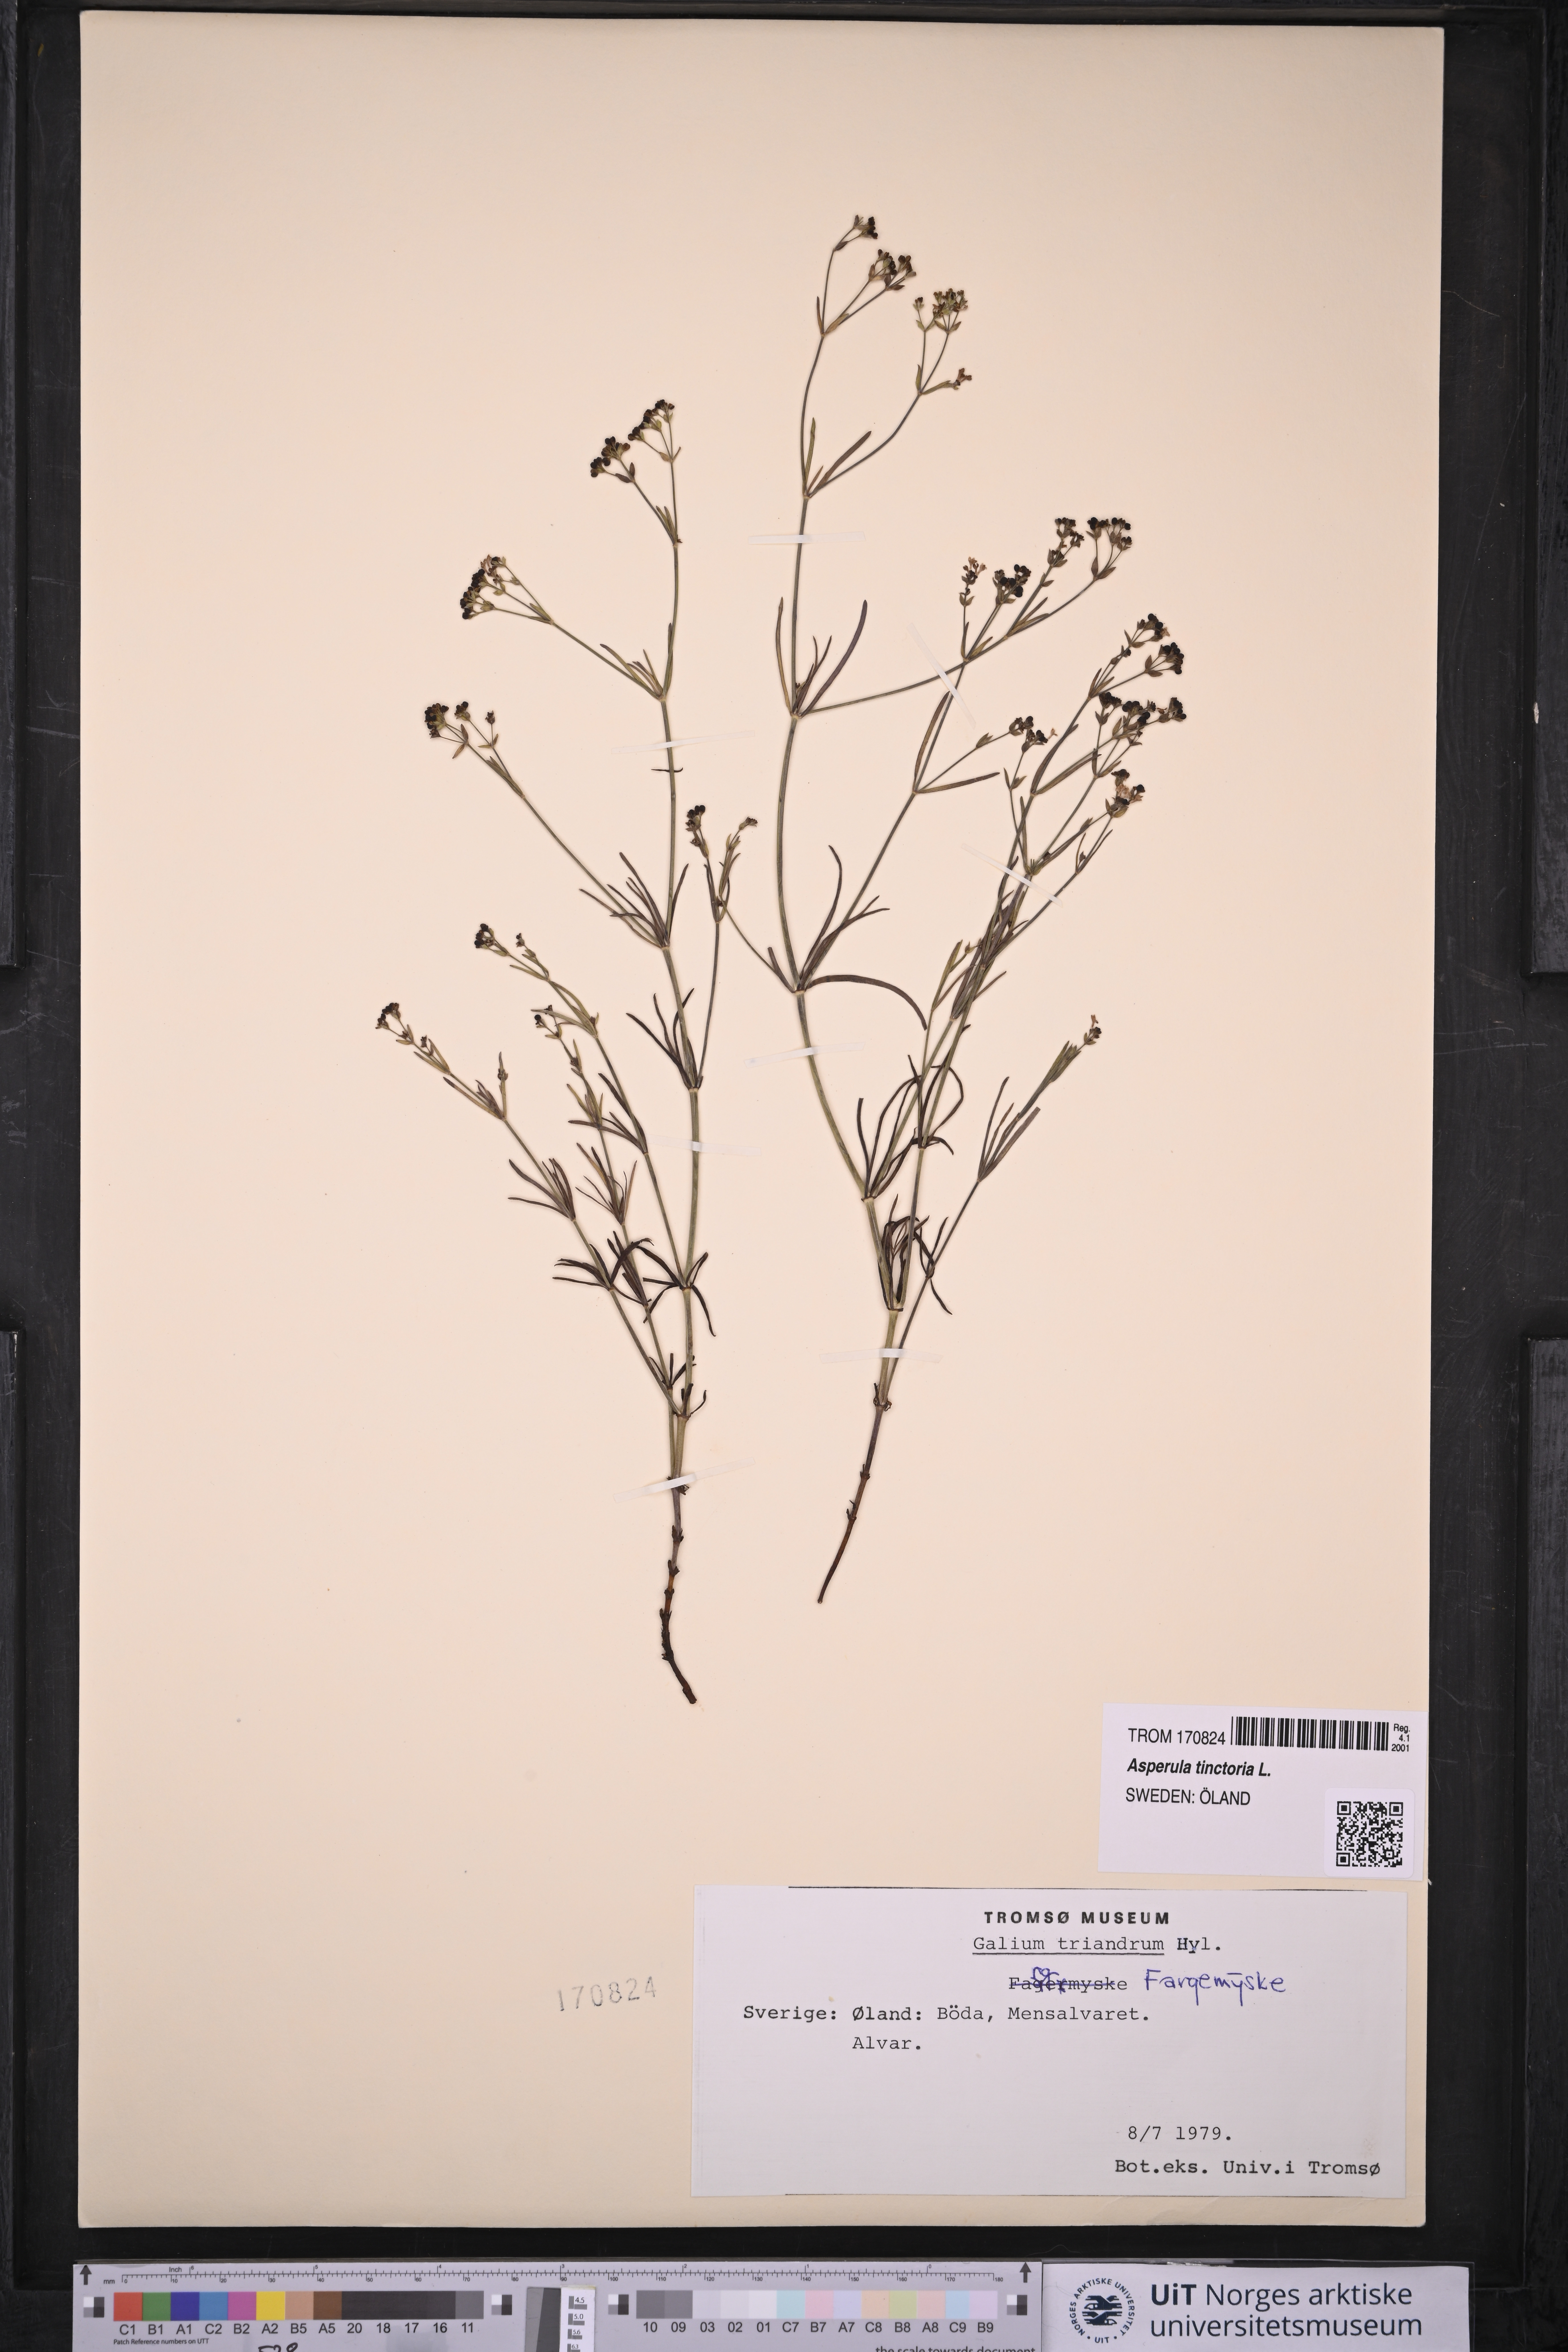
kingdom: Plantae
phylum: Tracheophyta
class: Magnoliopsida
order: Gentianales
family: Rubiaceae
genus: Asperula
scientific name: Asperula tinctoria
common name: Dyer's woodruff
